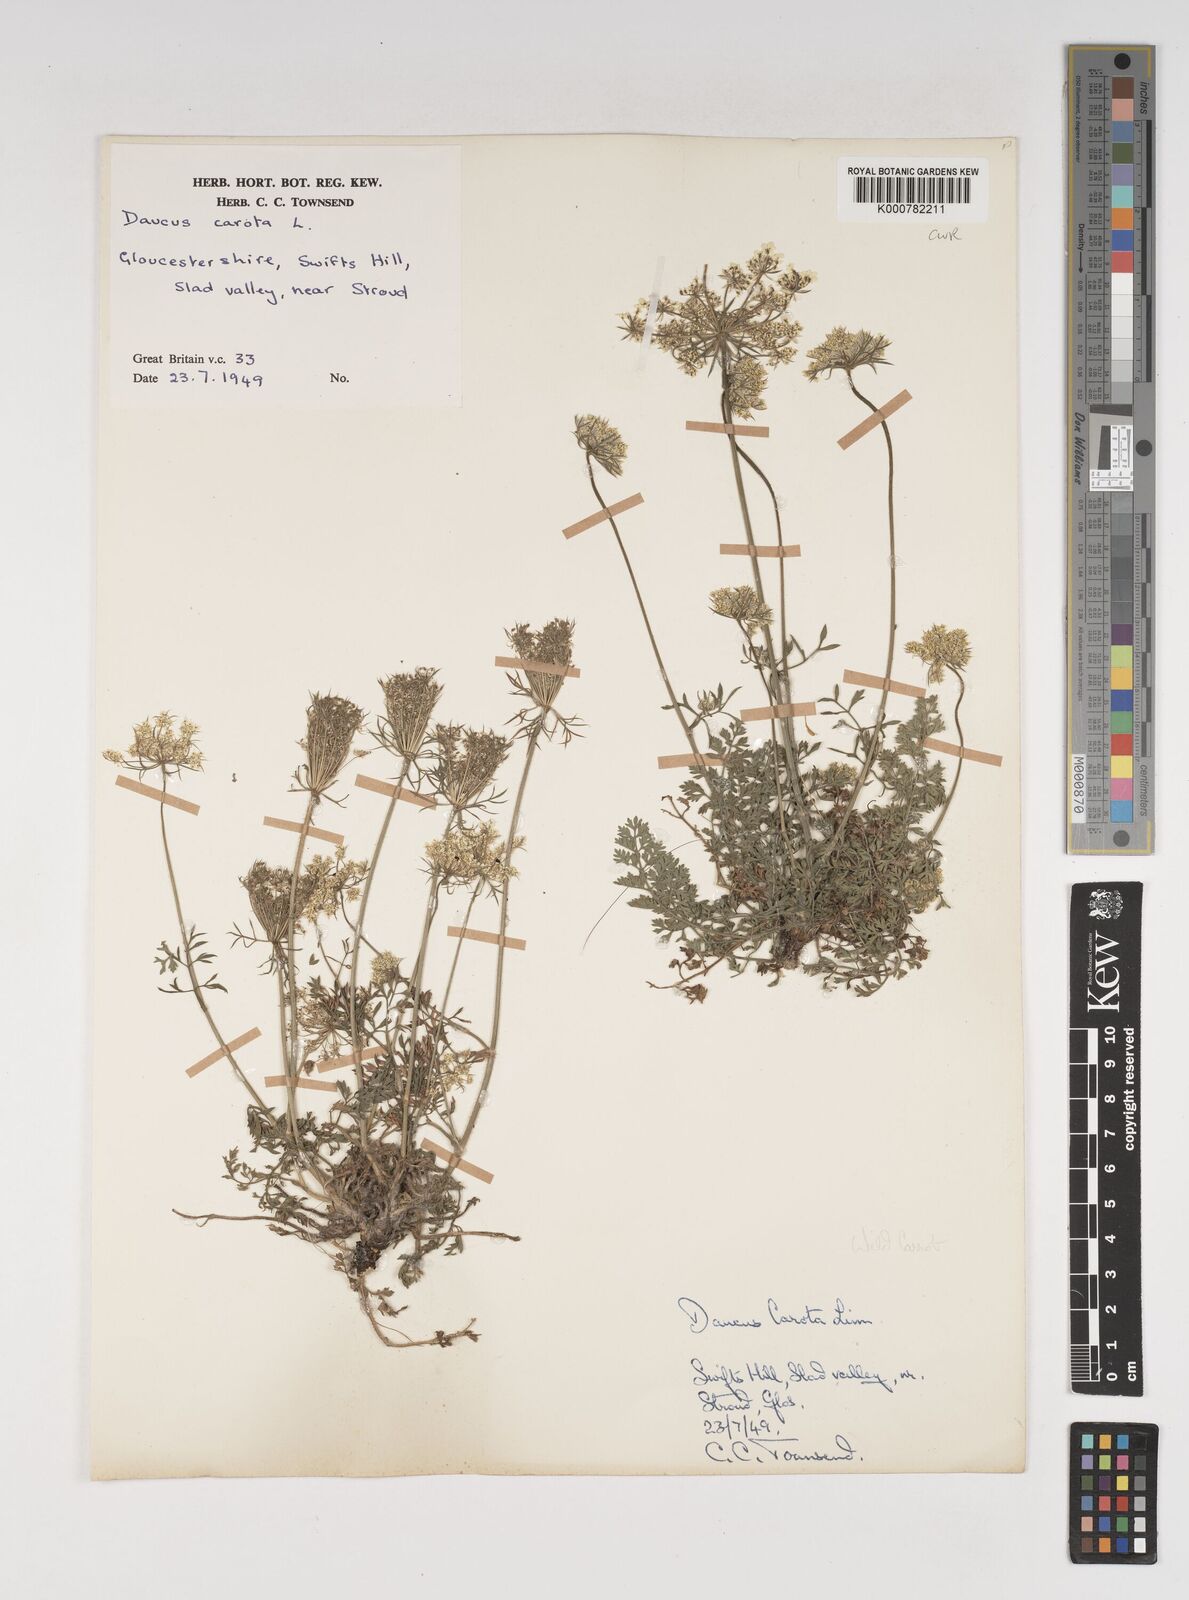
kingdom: Plantae
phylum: Tracheophyta
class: Magnoliopsida
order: Apiales
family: Apiaceae
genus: Daucus
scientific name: Daucus carota
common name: Wild carrot
